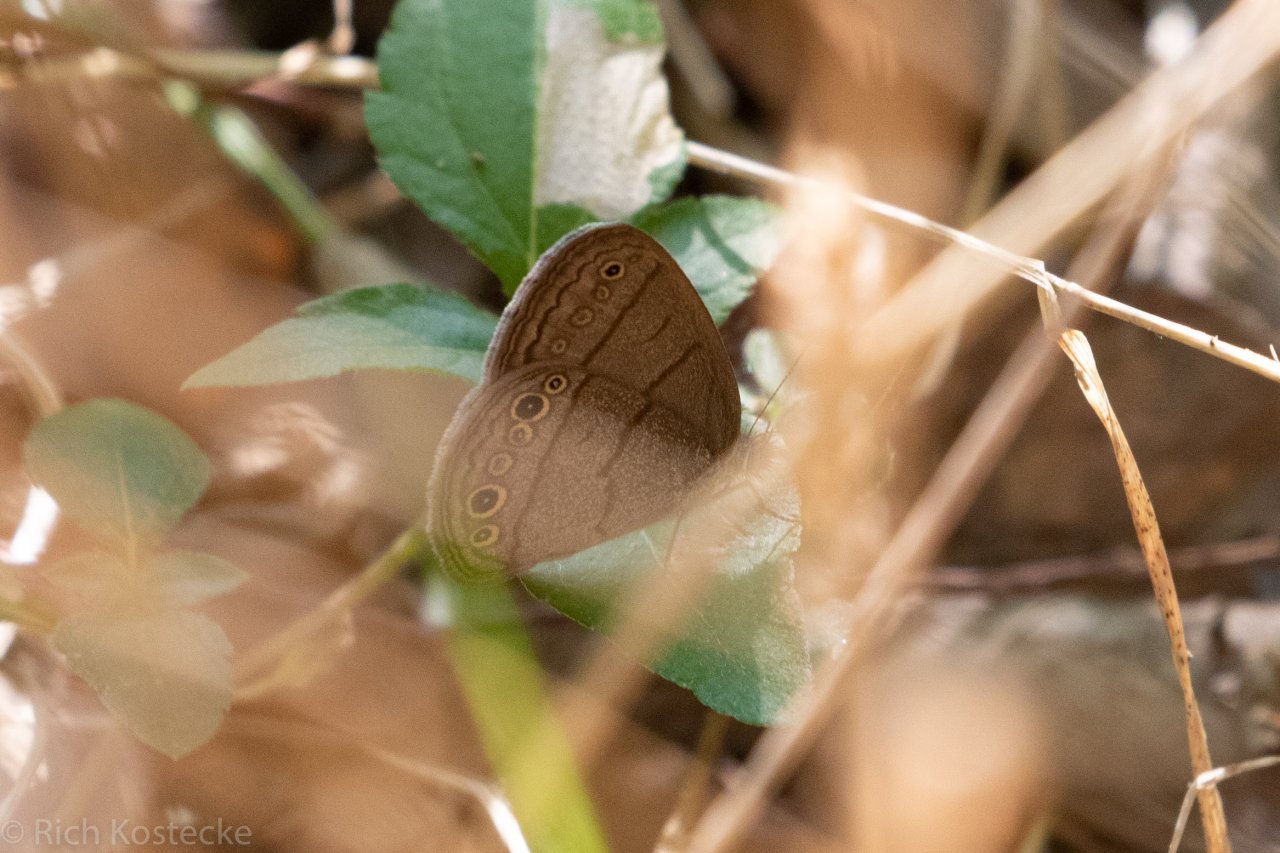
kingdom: Animalia
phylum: Arthropoda
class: Insecta
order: Lepidoptera
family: Nymphalidae
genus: Hermeuptychia
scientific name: Hermeuptychia hermes
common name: Carolina Satyr
